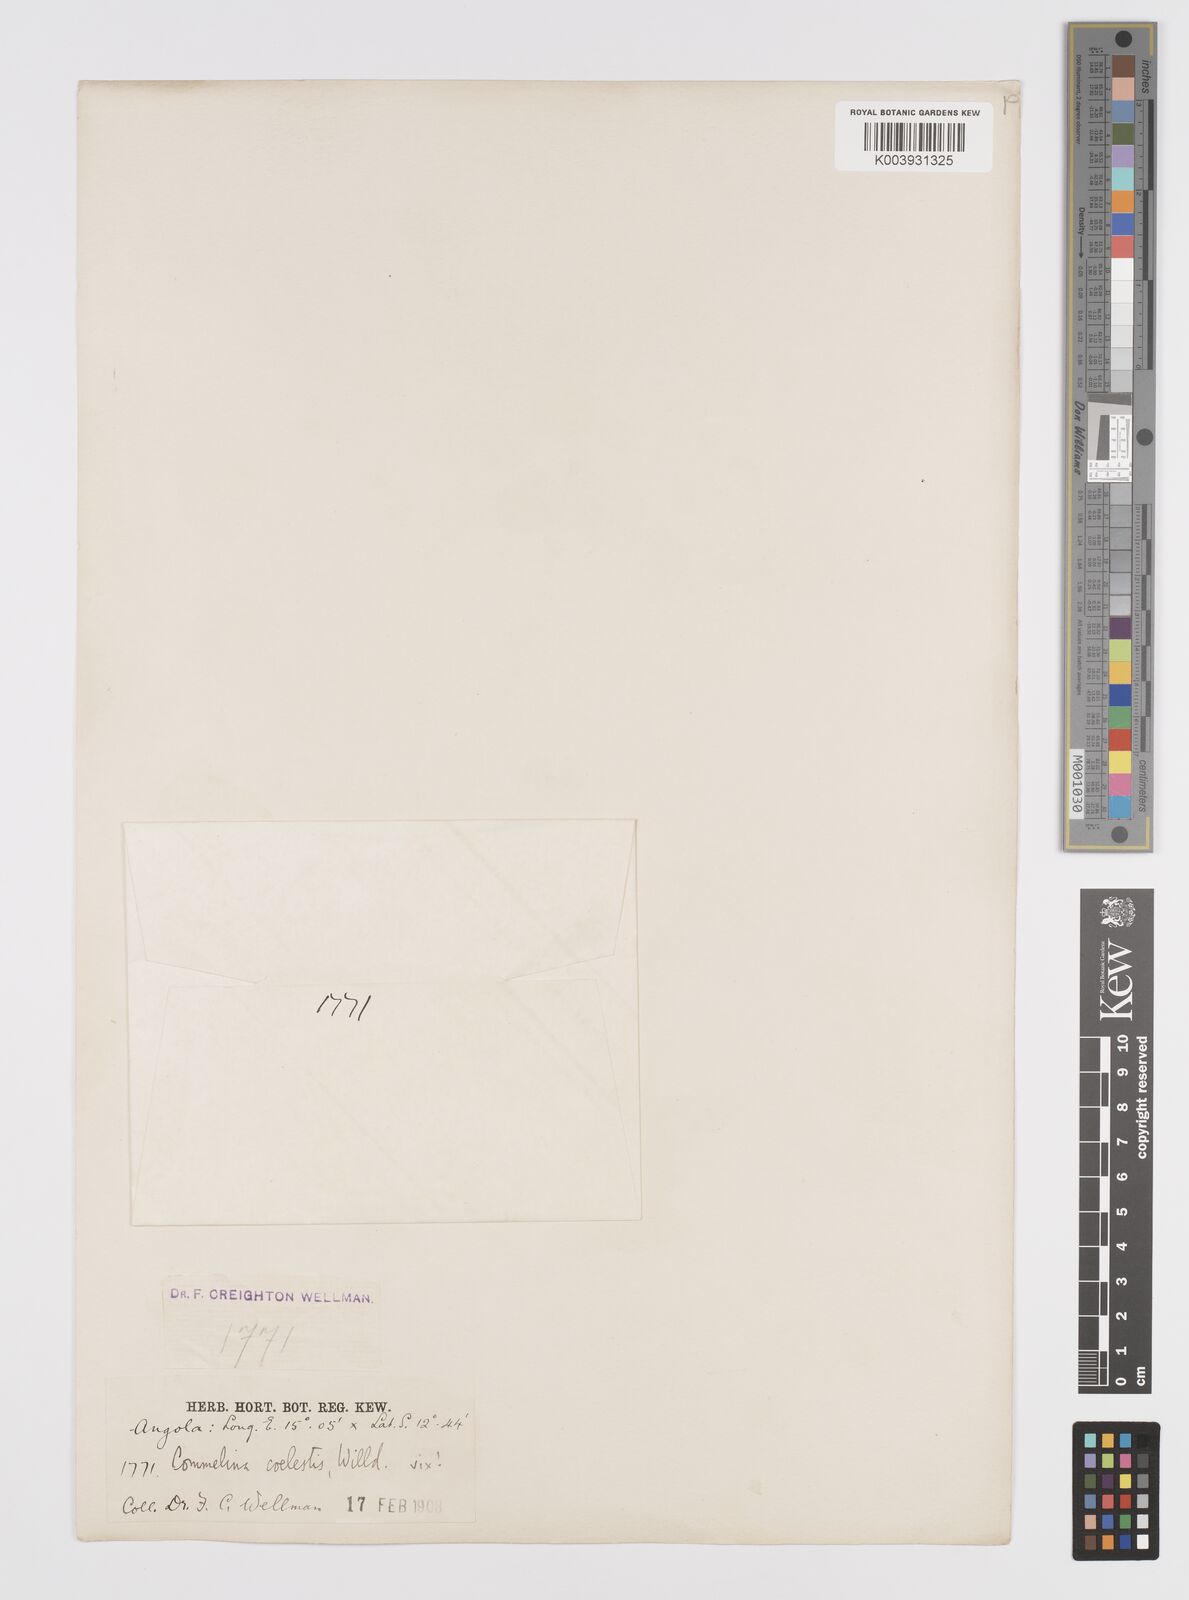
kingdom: Plantae
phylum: Tracheophyta
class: Liliopsida
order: Commelinales
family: Commelinaceae
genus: Commelina
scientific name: Commelina
